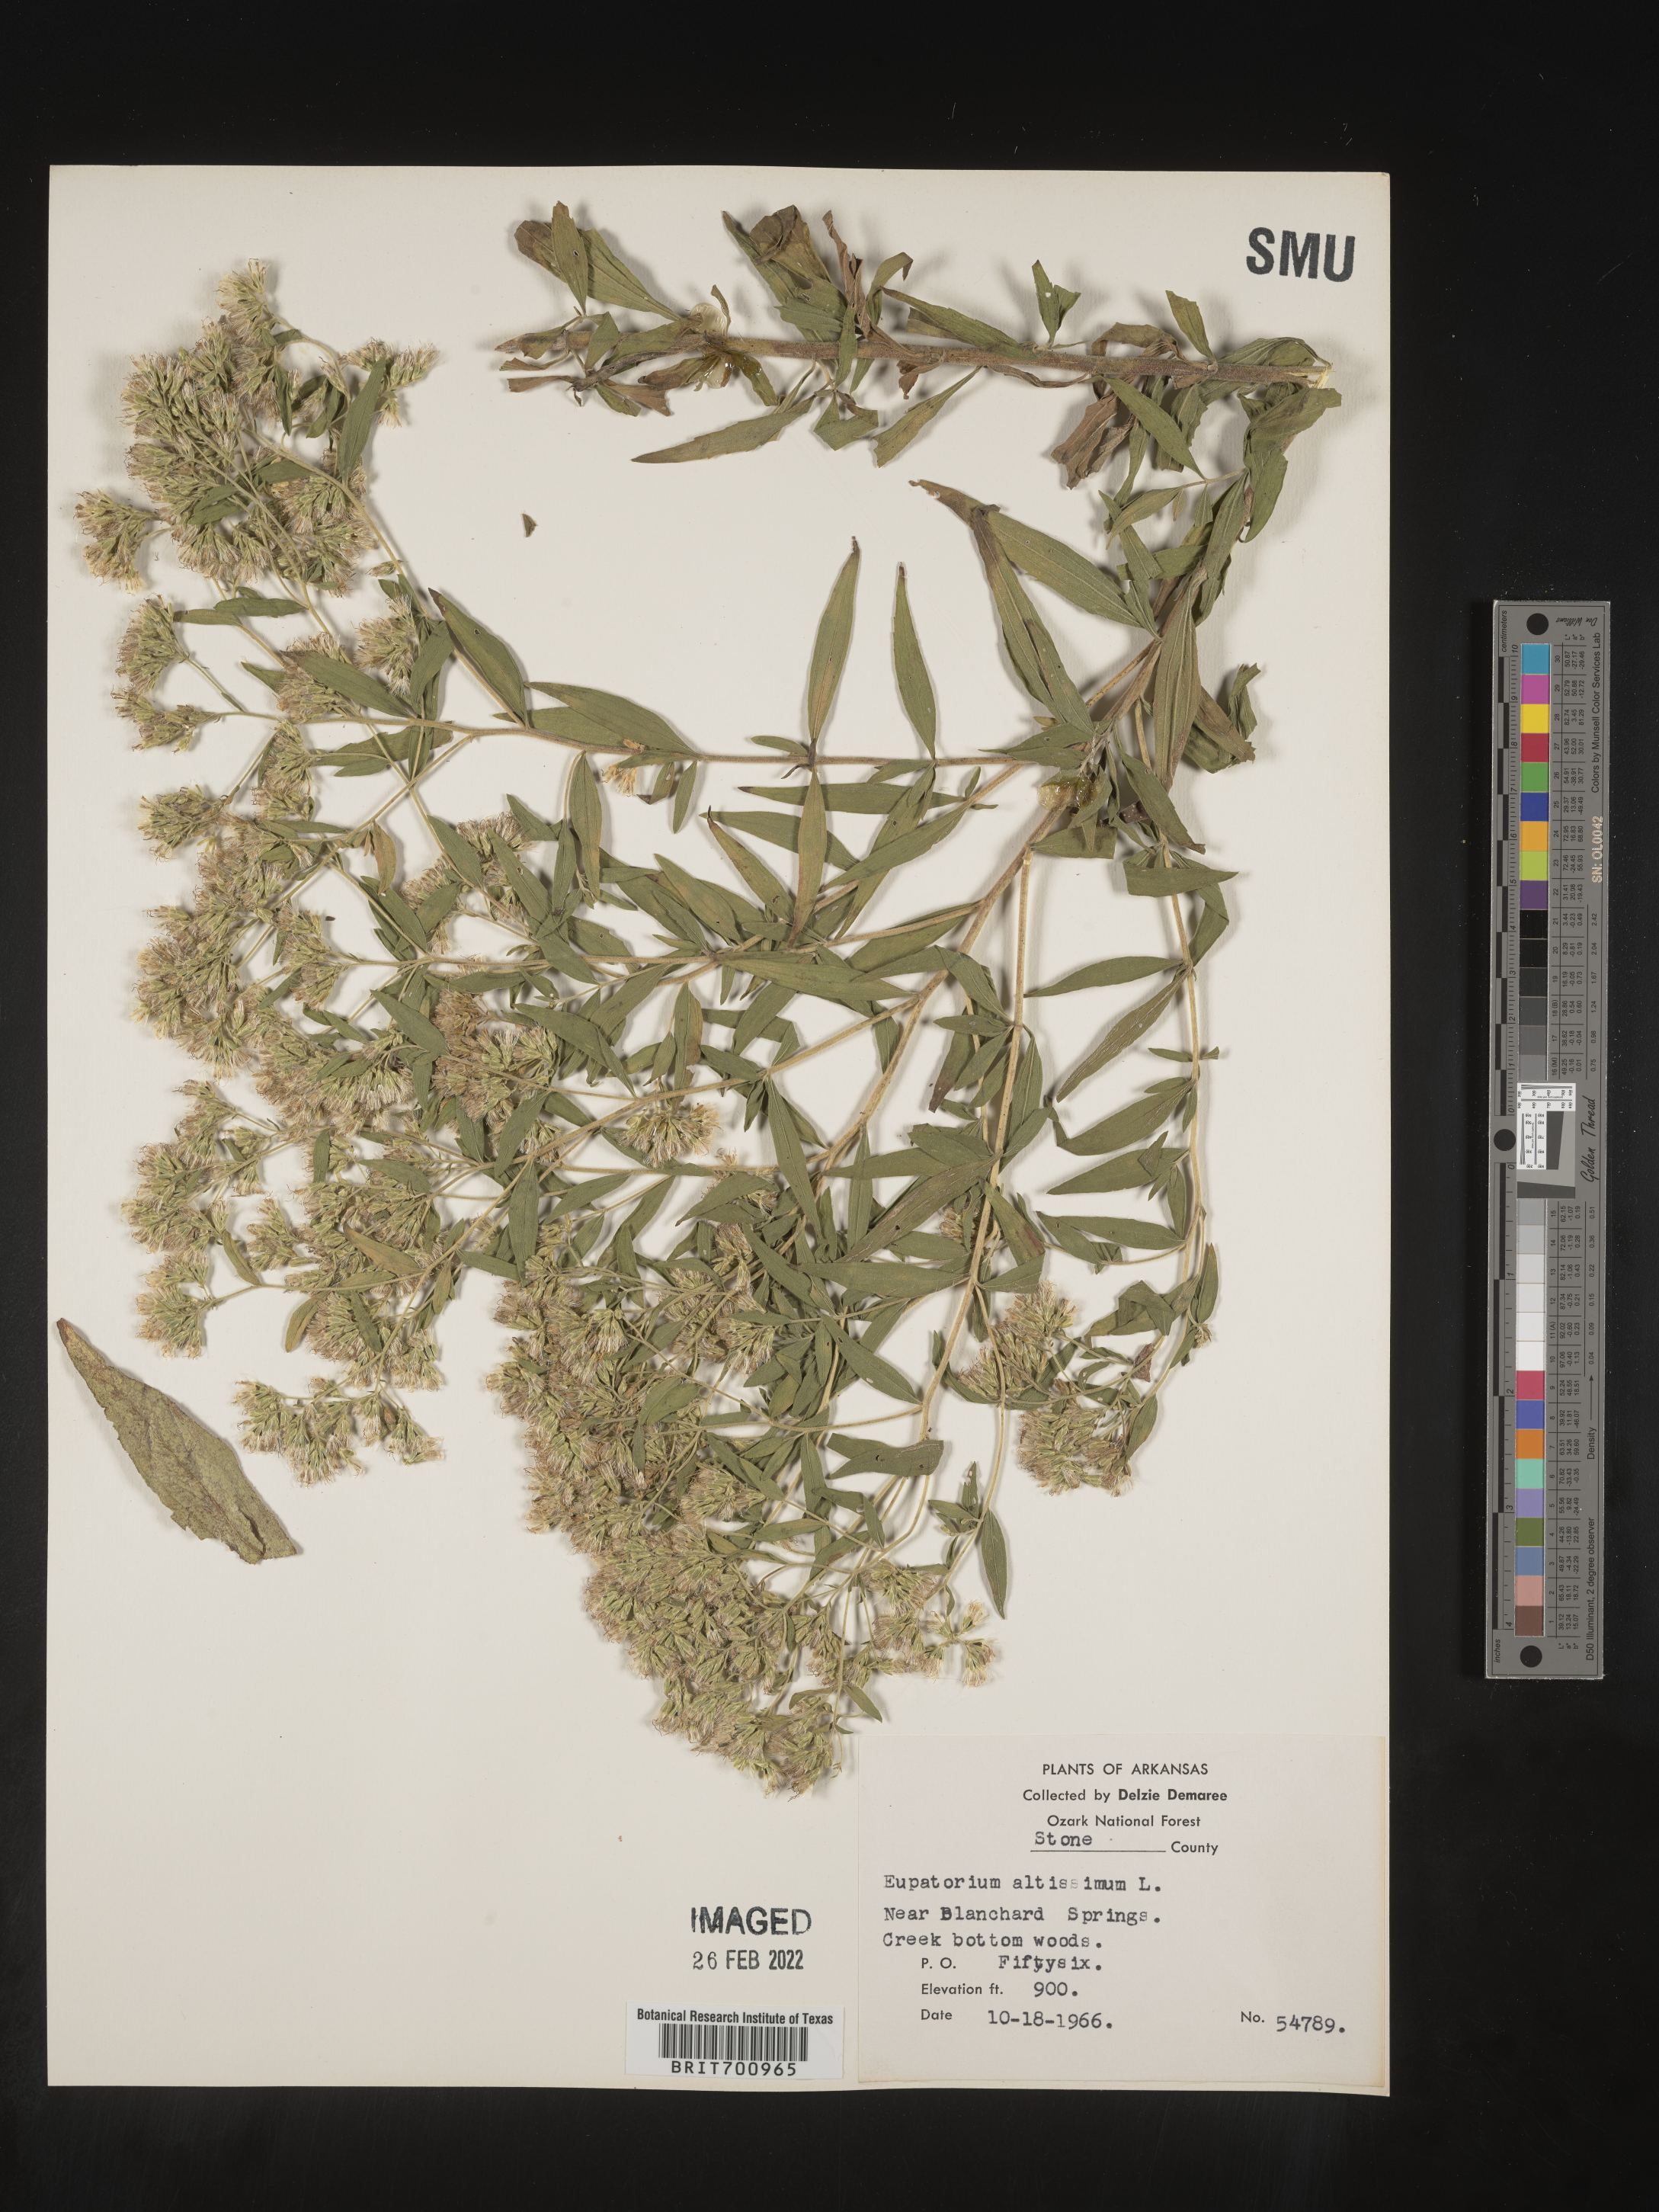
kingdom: Plantae
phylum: Tracheophyta
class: Magnoliopsida
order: Asterales
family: Asteraceae
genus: Eupatorium
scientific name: Eupatorium altissimum
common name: Tall thoroughwort
